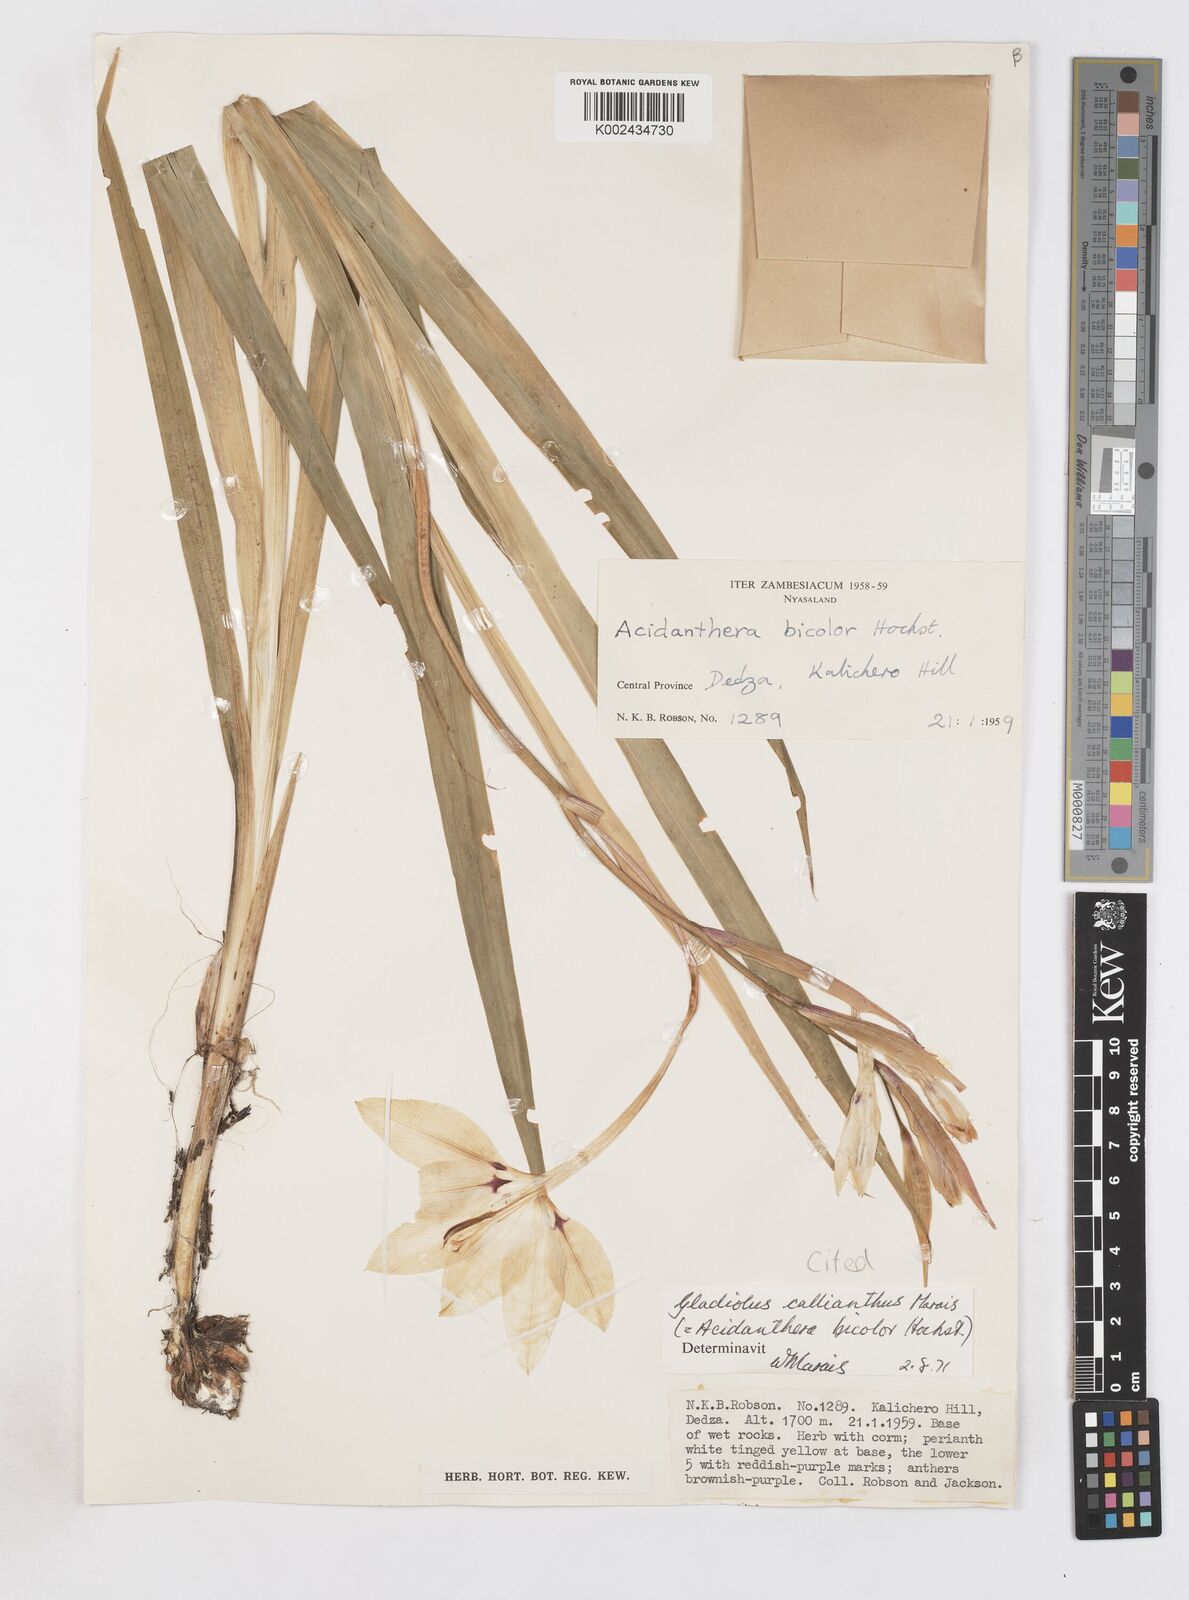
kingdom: Plantae
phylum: Tracheophyta
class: Liliopsida
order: Asparagales
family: Iridaceae
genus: Gladiolus
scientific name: Gladiolus murielae
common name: Acidanthera
